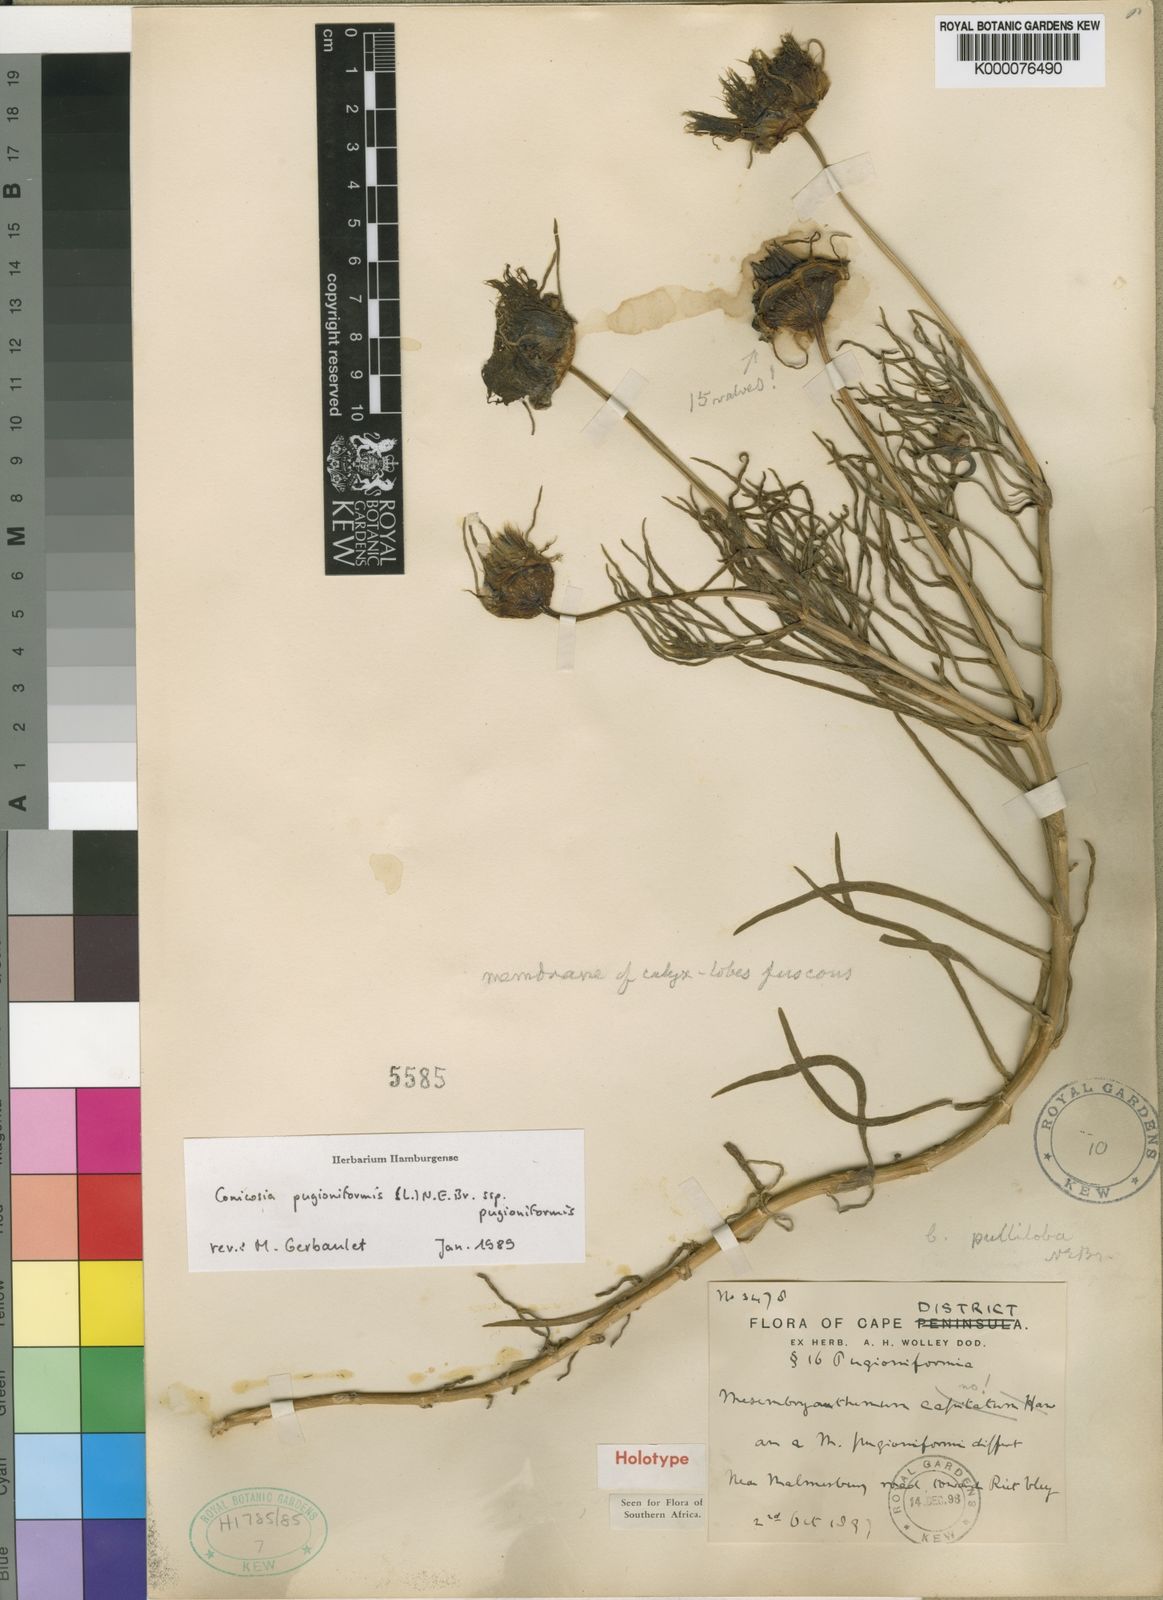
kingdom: Plantae
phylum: Tracheophyta
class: Magnoliopsida
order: Caryophyllales
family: Aizoaceae
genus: Conicosia
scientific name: Conicosia pugioniformis
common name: Narrow-leaved iceplant
